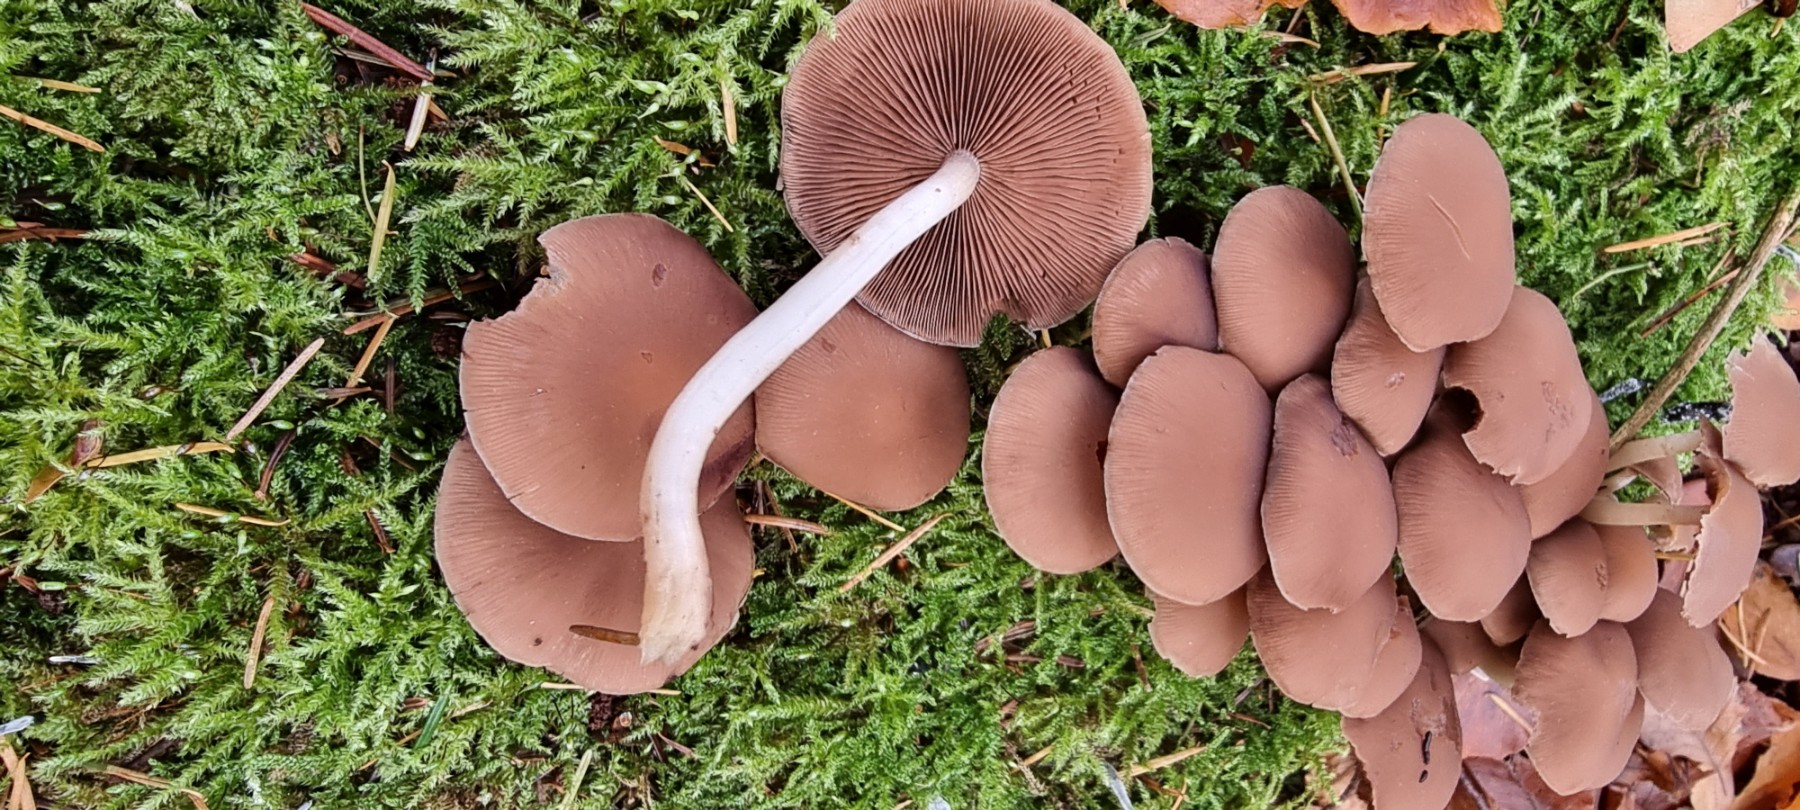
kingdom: Fungi
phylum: Basidiomycota
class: Agaricomycetes
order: Agaricales
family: Psathyrellaceae
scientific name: Psathyrellaceae
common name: mørkhatfamilien
